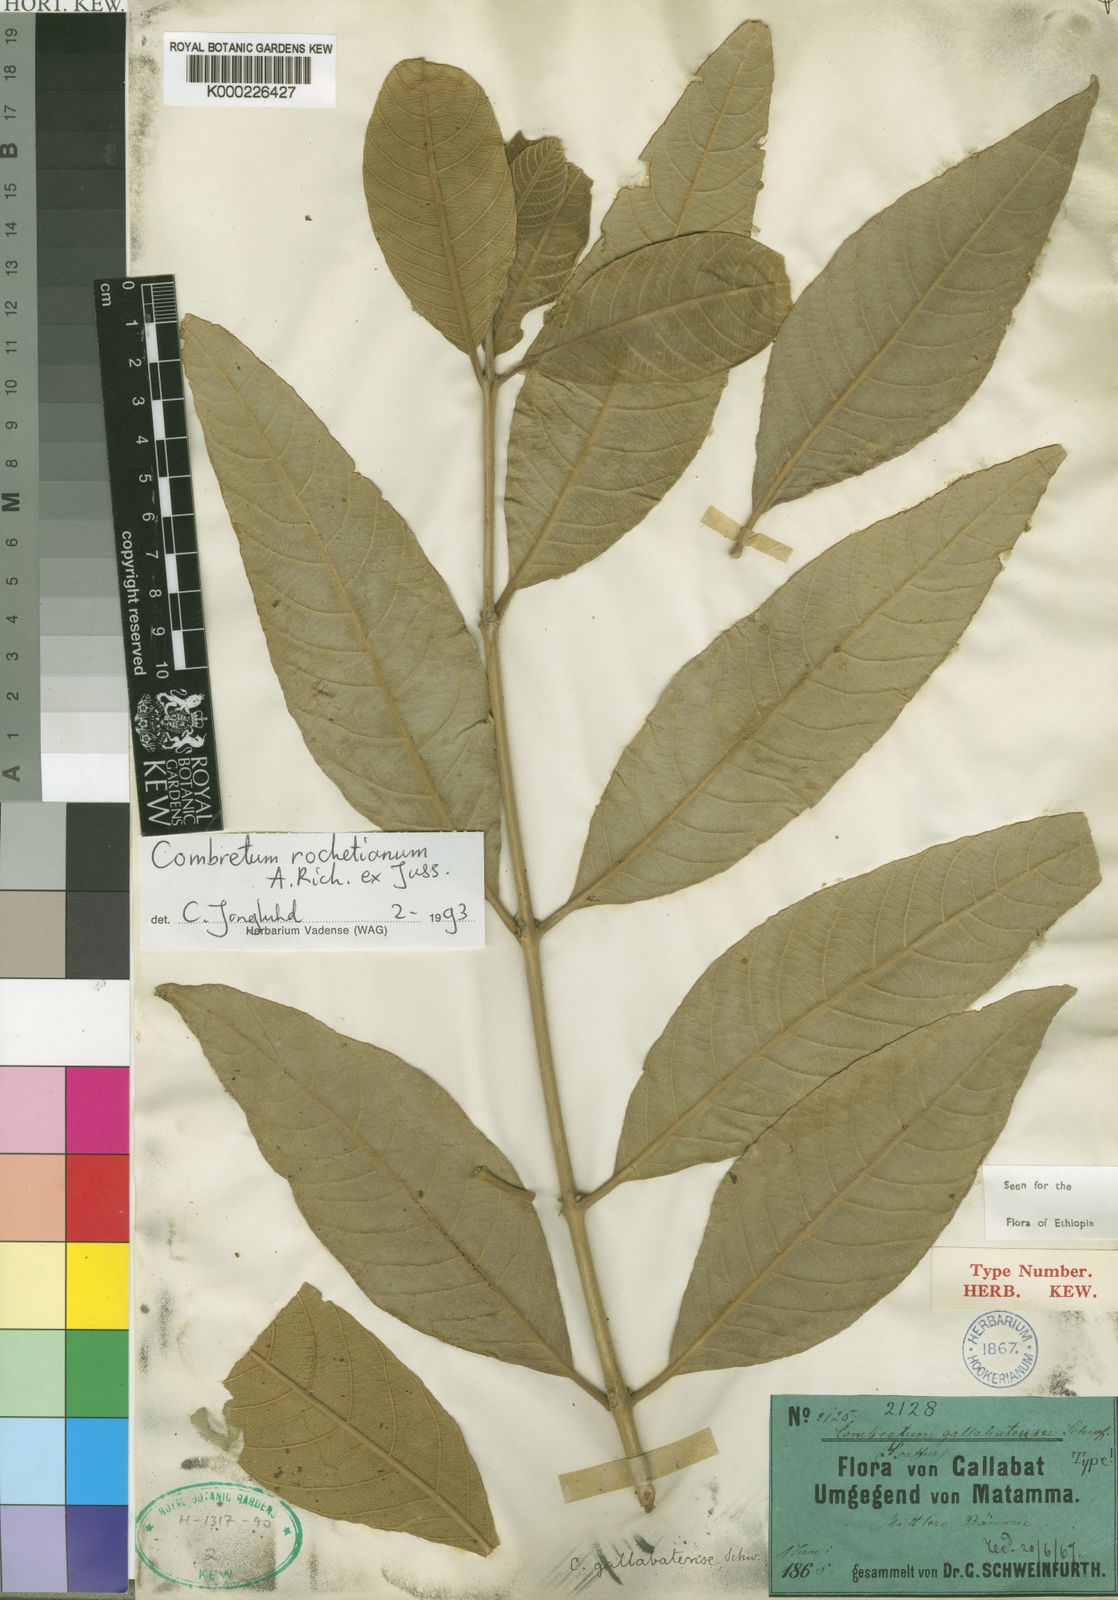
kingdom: Plantae
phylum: Tracheophyta
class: Magnoliopsida
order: Myrtales
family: Combretaceae
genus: Combretum
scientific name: Combretum rochetianum
